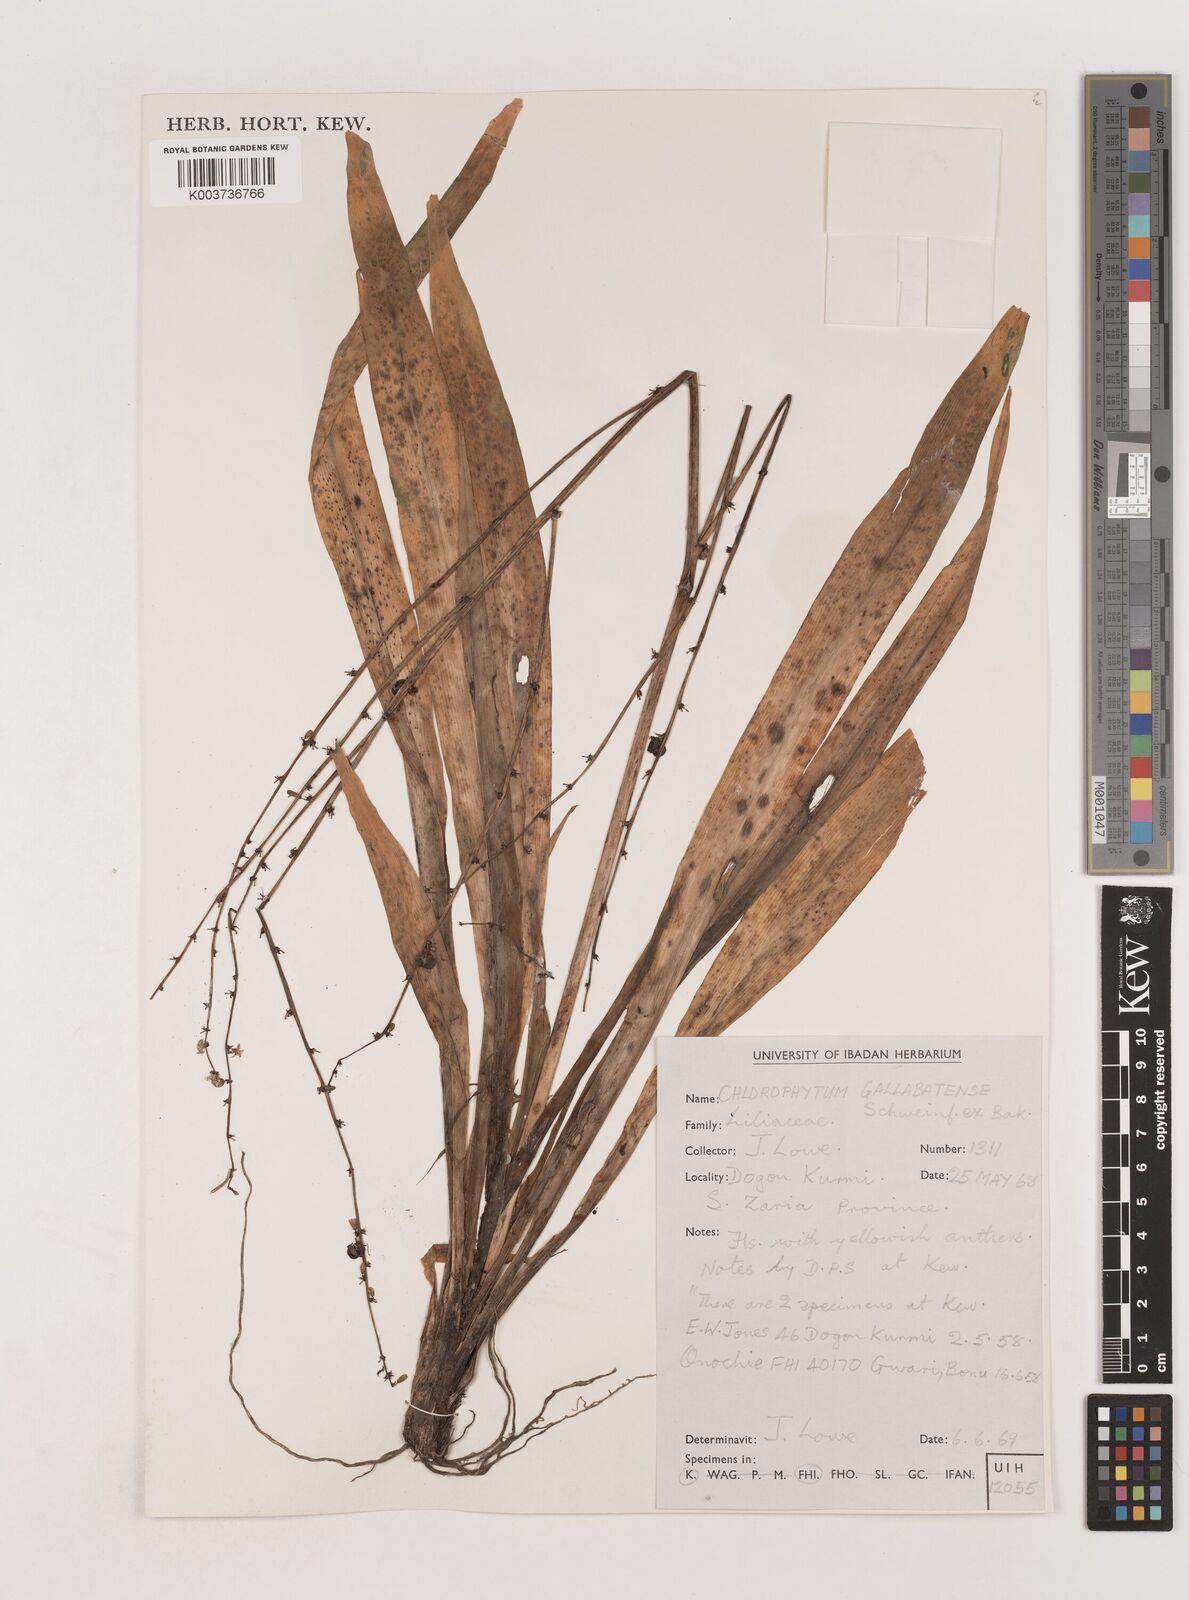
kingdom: Plantae
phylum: Tracheophyta
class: Liliopsida
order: Asparagales
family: Asparagaceae
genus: Chlorophytum
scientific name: Chlorophytum gallabatense
